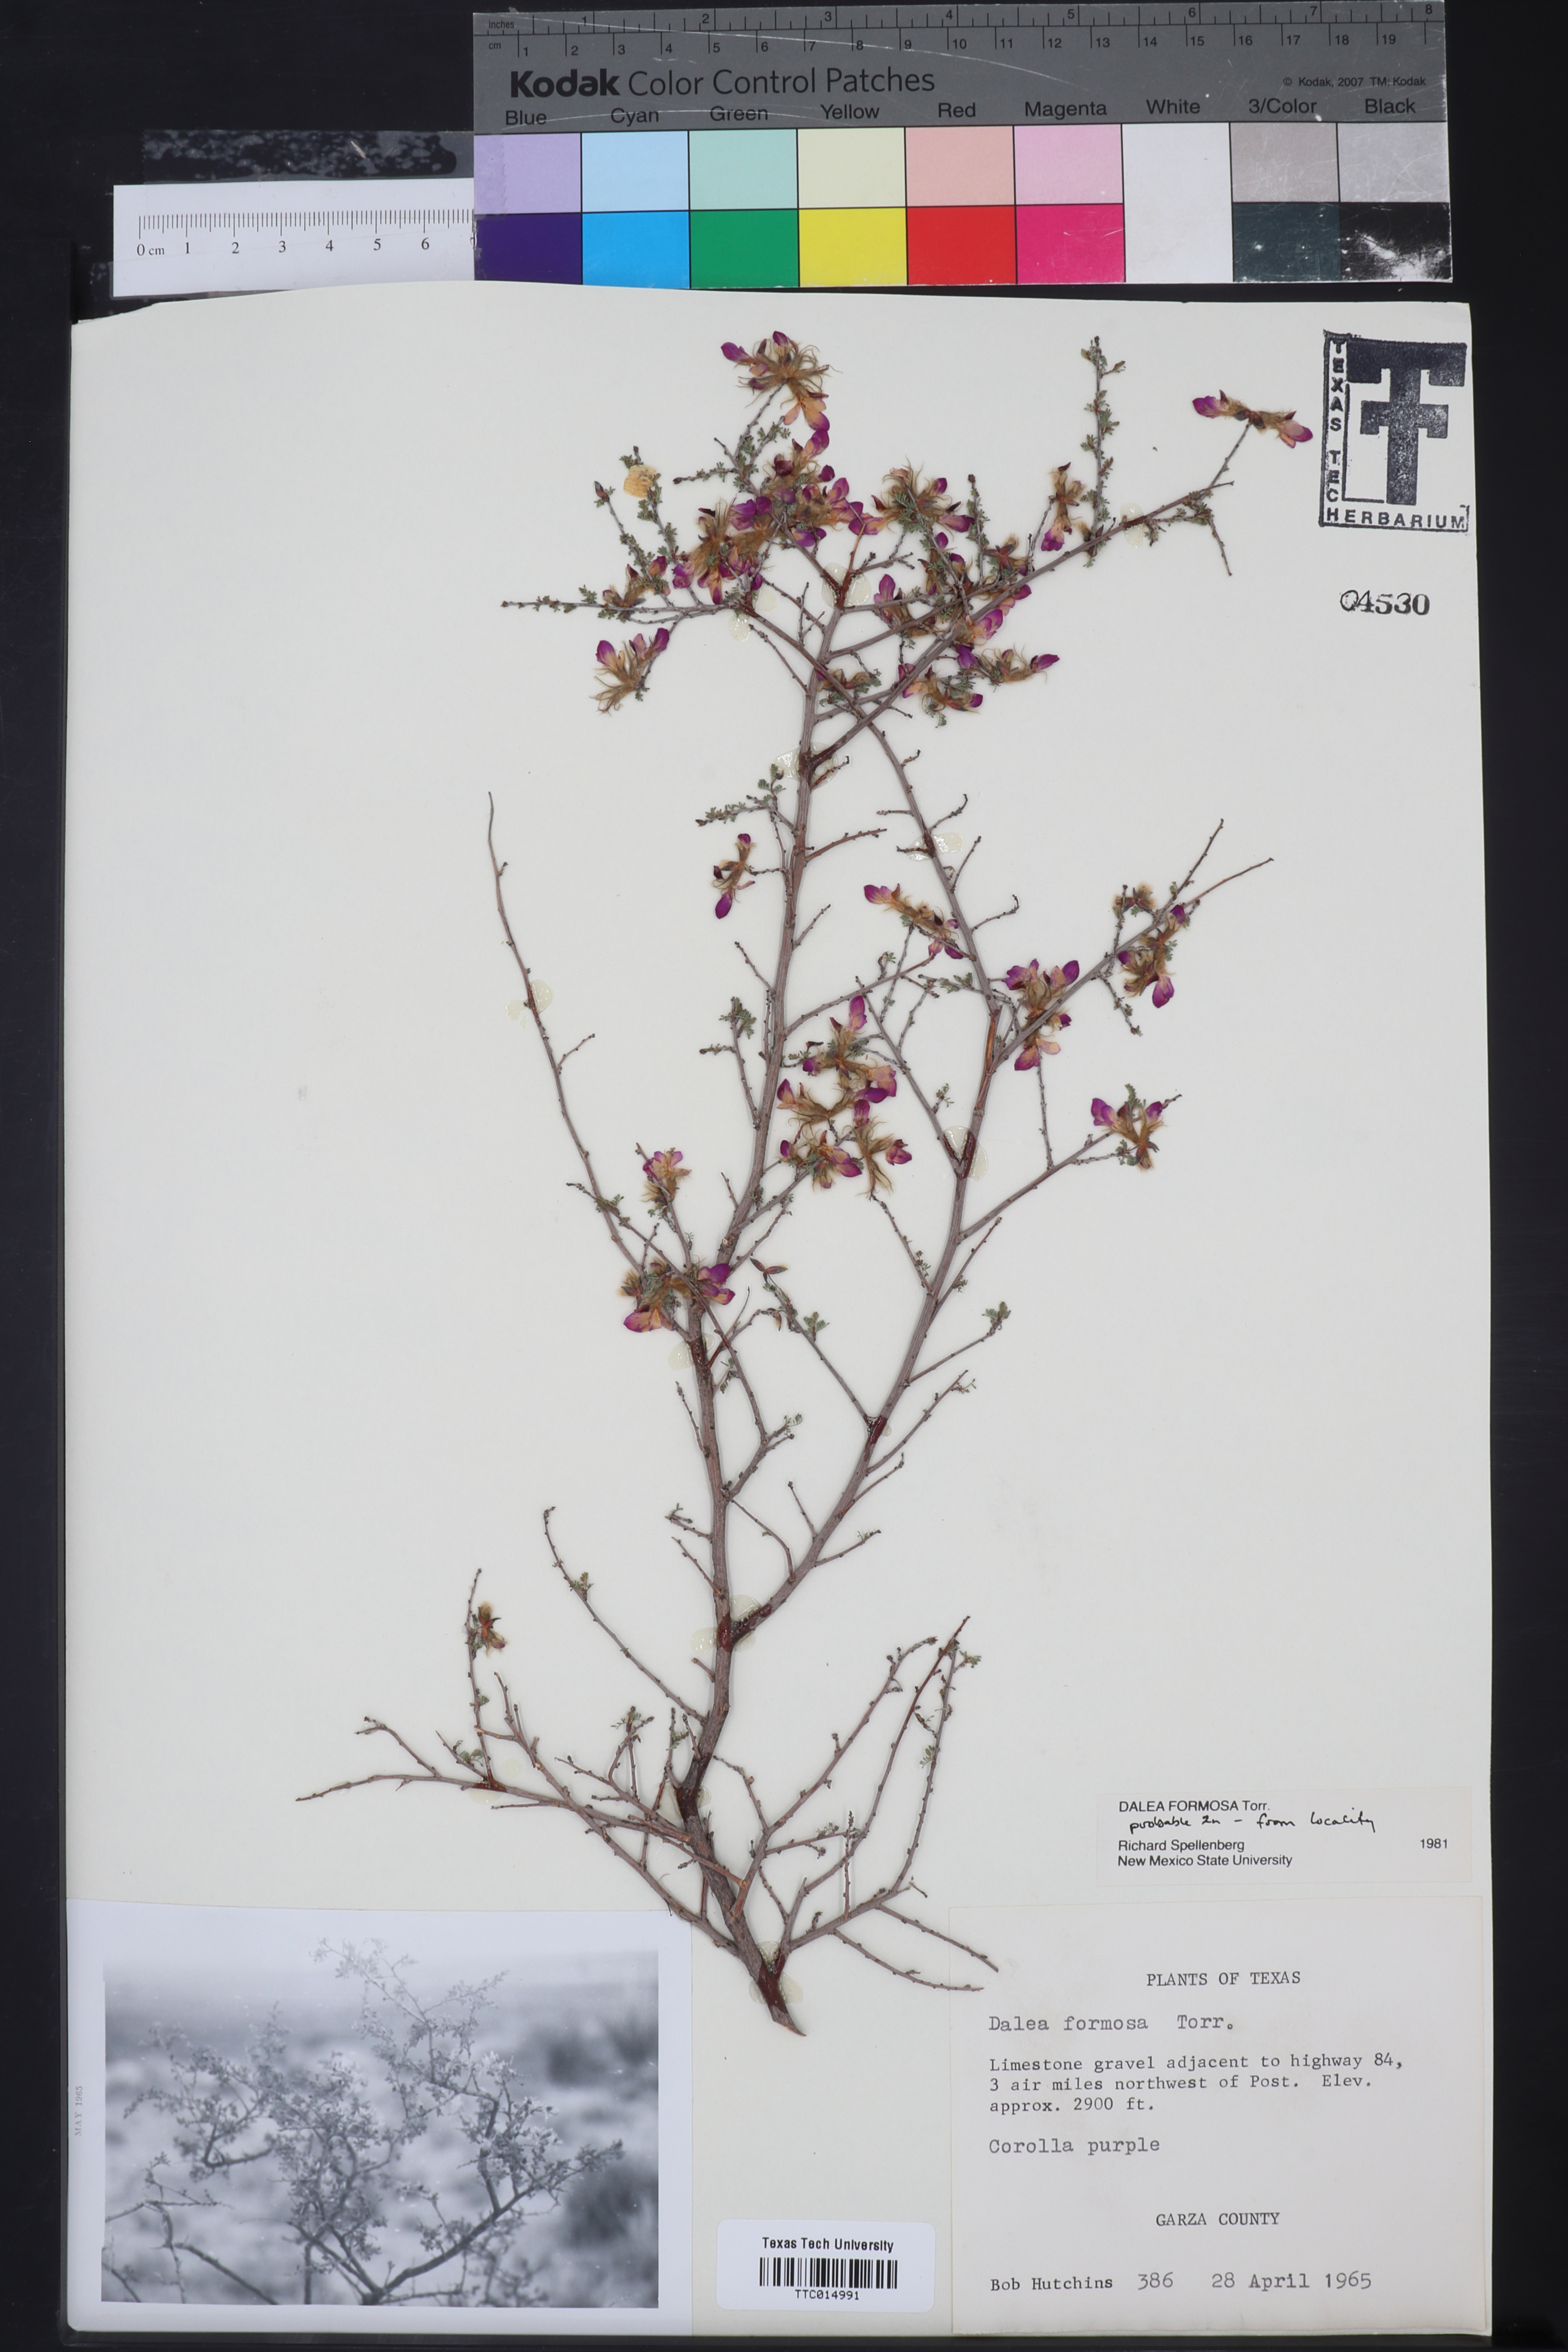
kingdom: Plantae
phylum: Tracheophyta
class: Magnoliopsida
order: Fabales
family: Fabaceae
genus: Dalea
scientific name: Dalea formosa
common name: Feather-plume dalea
